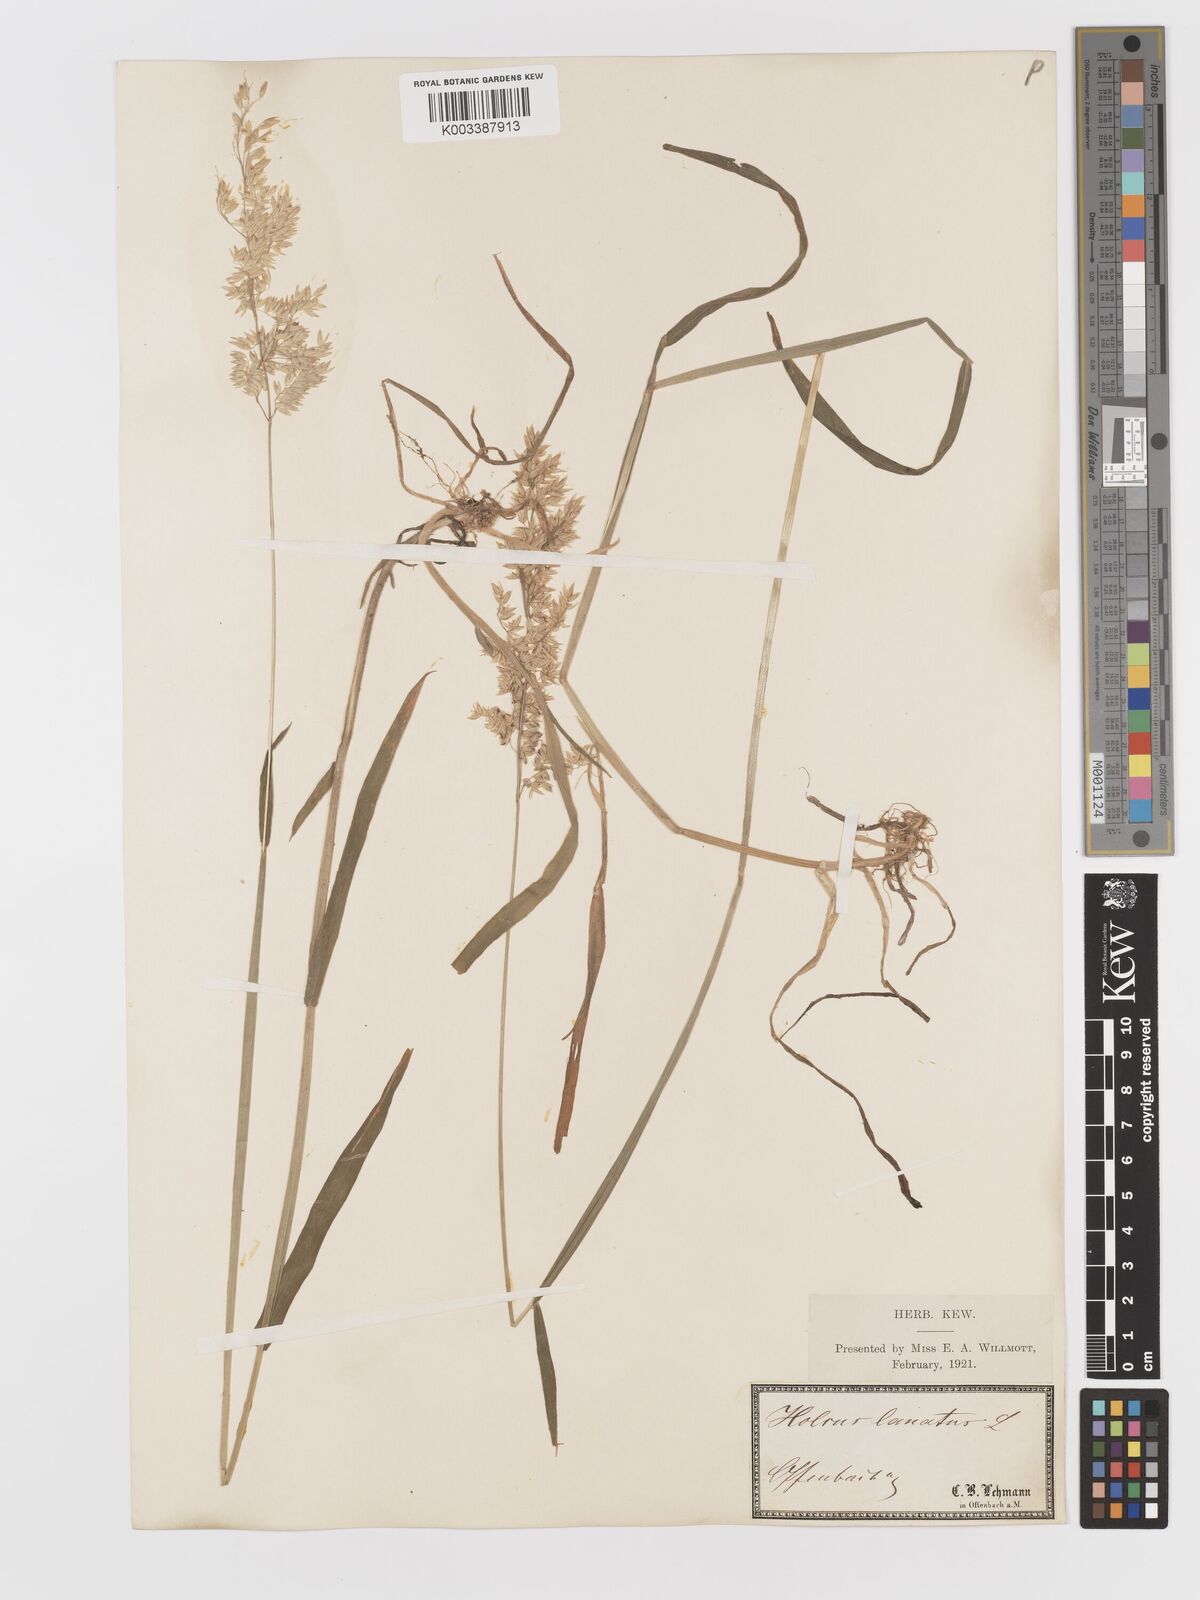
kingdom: Plantae
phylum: Tracheophyta
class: Liliopsida
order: Poales
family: Poaceae
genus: Holcus
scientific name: Holcus lanatus
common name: Yorkshire-fog
